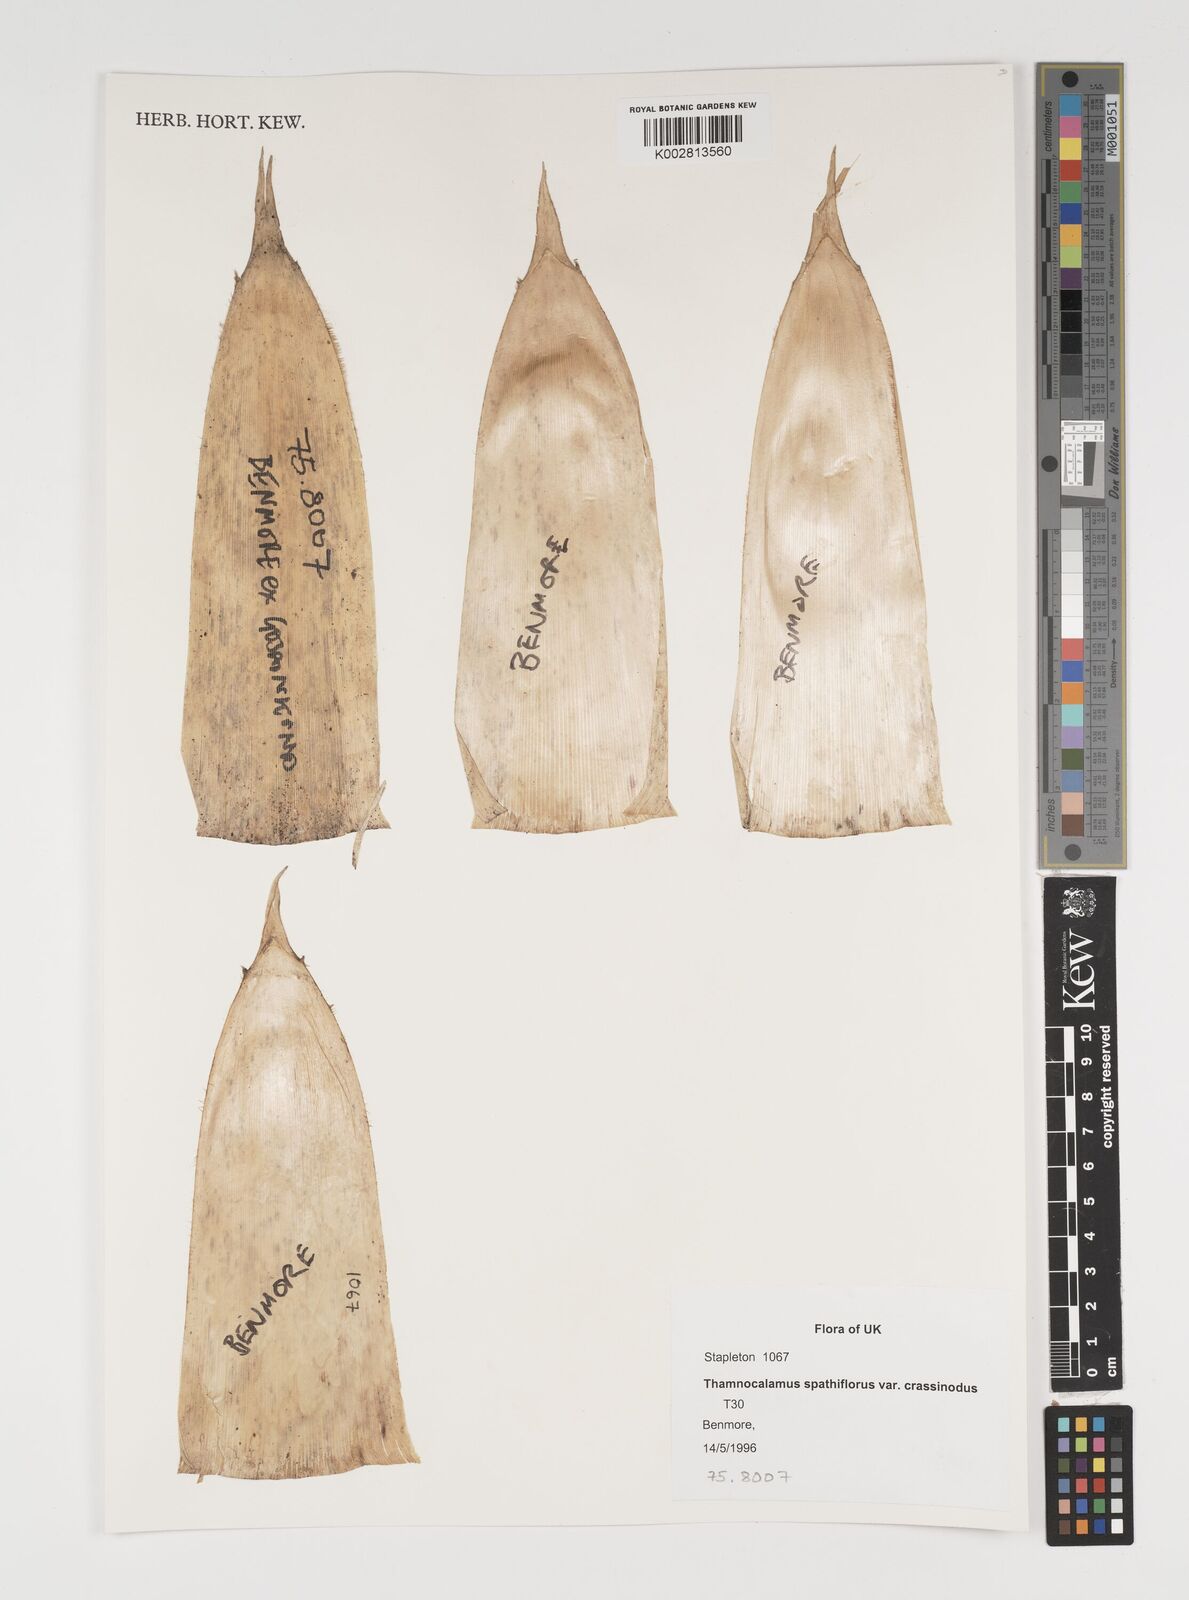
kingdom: Plantae
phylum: Tracheophyta
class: Liliopsida
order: Poales
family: Poaceae
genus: Fargesia
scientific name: Fargesia murielae
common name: Umbrella bamboo
